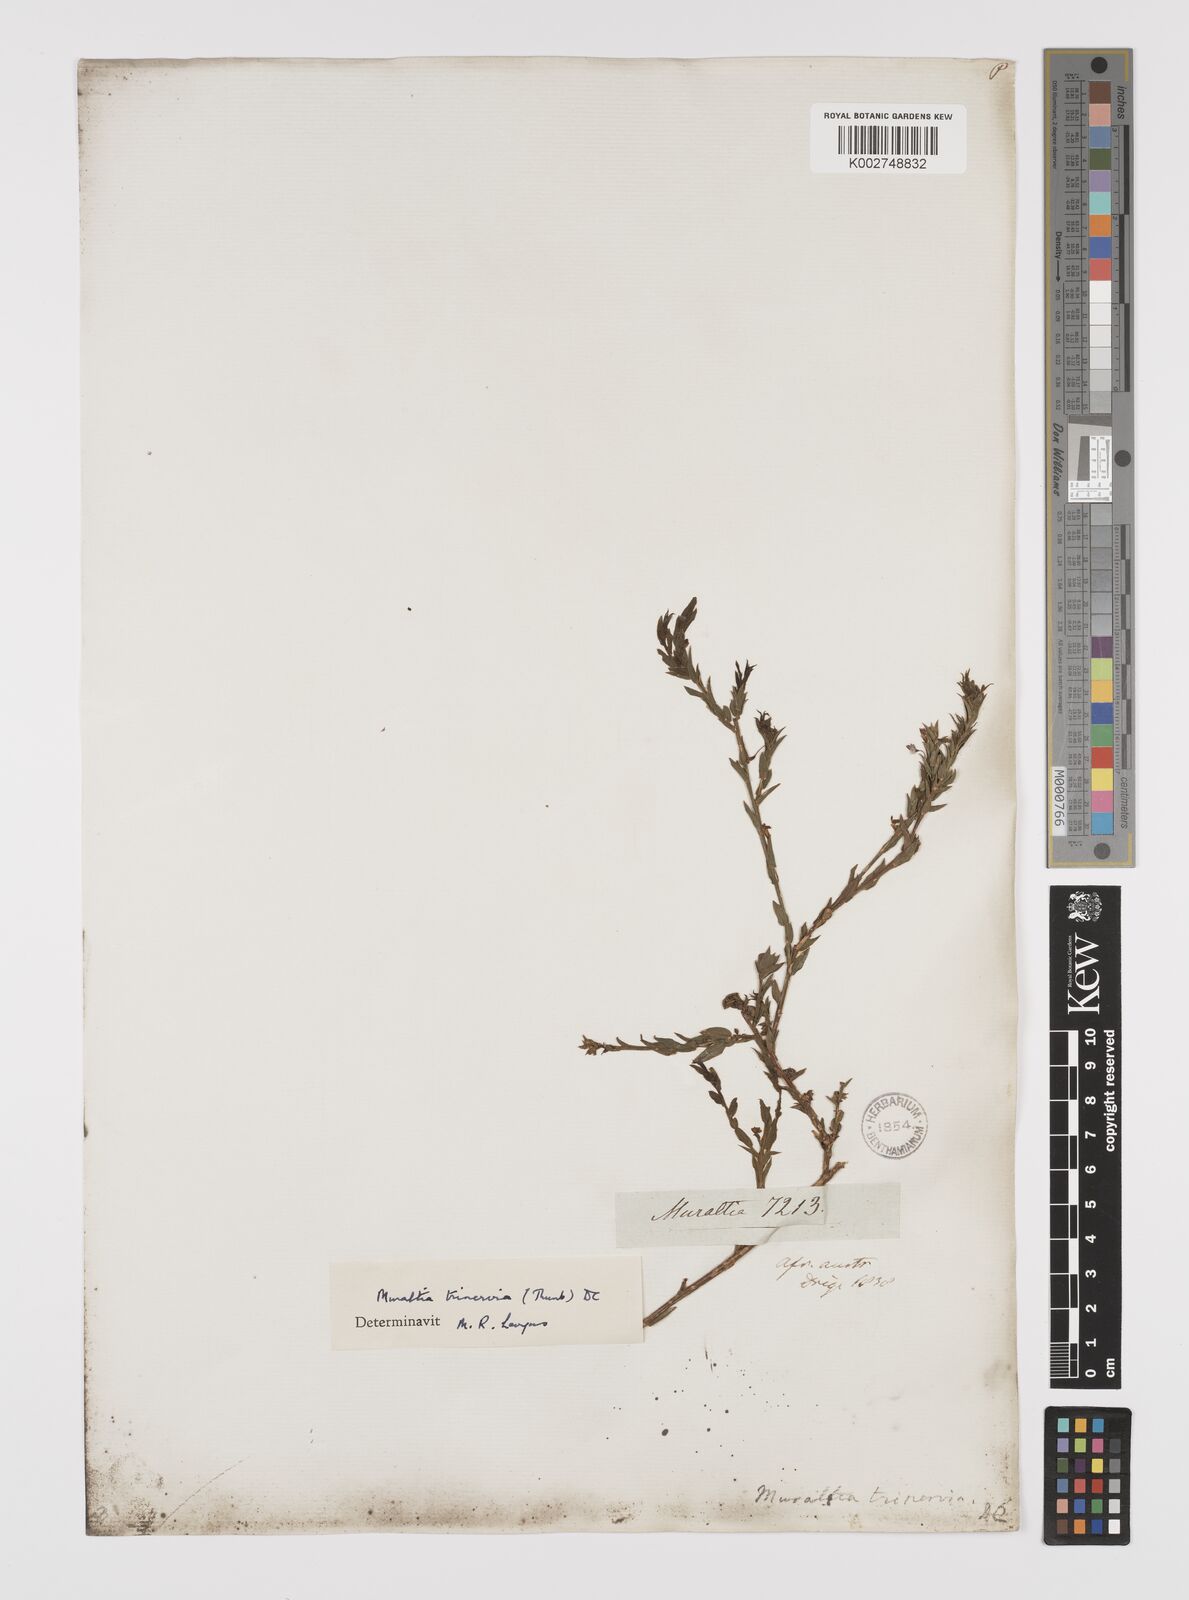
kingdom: Plantae
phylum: Tracheophyta
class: Magnoliopsida
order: Fabales
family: Polygalaceae
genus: Muraltia
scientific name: Muraltia trinervia
